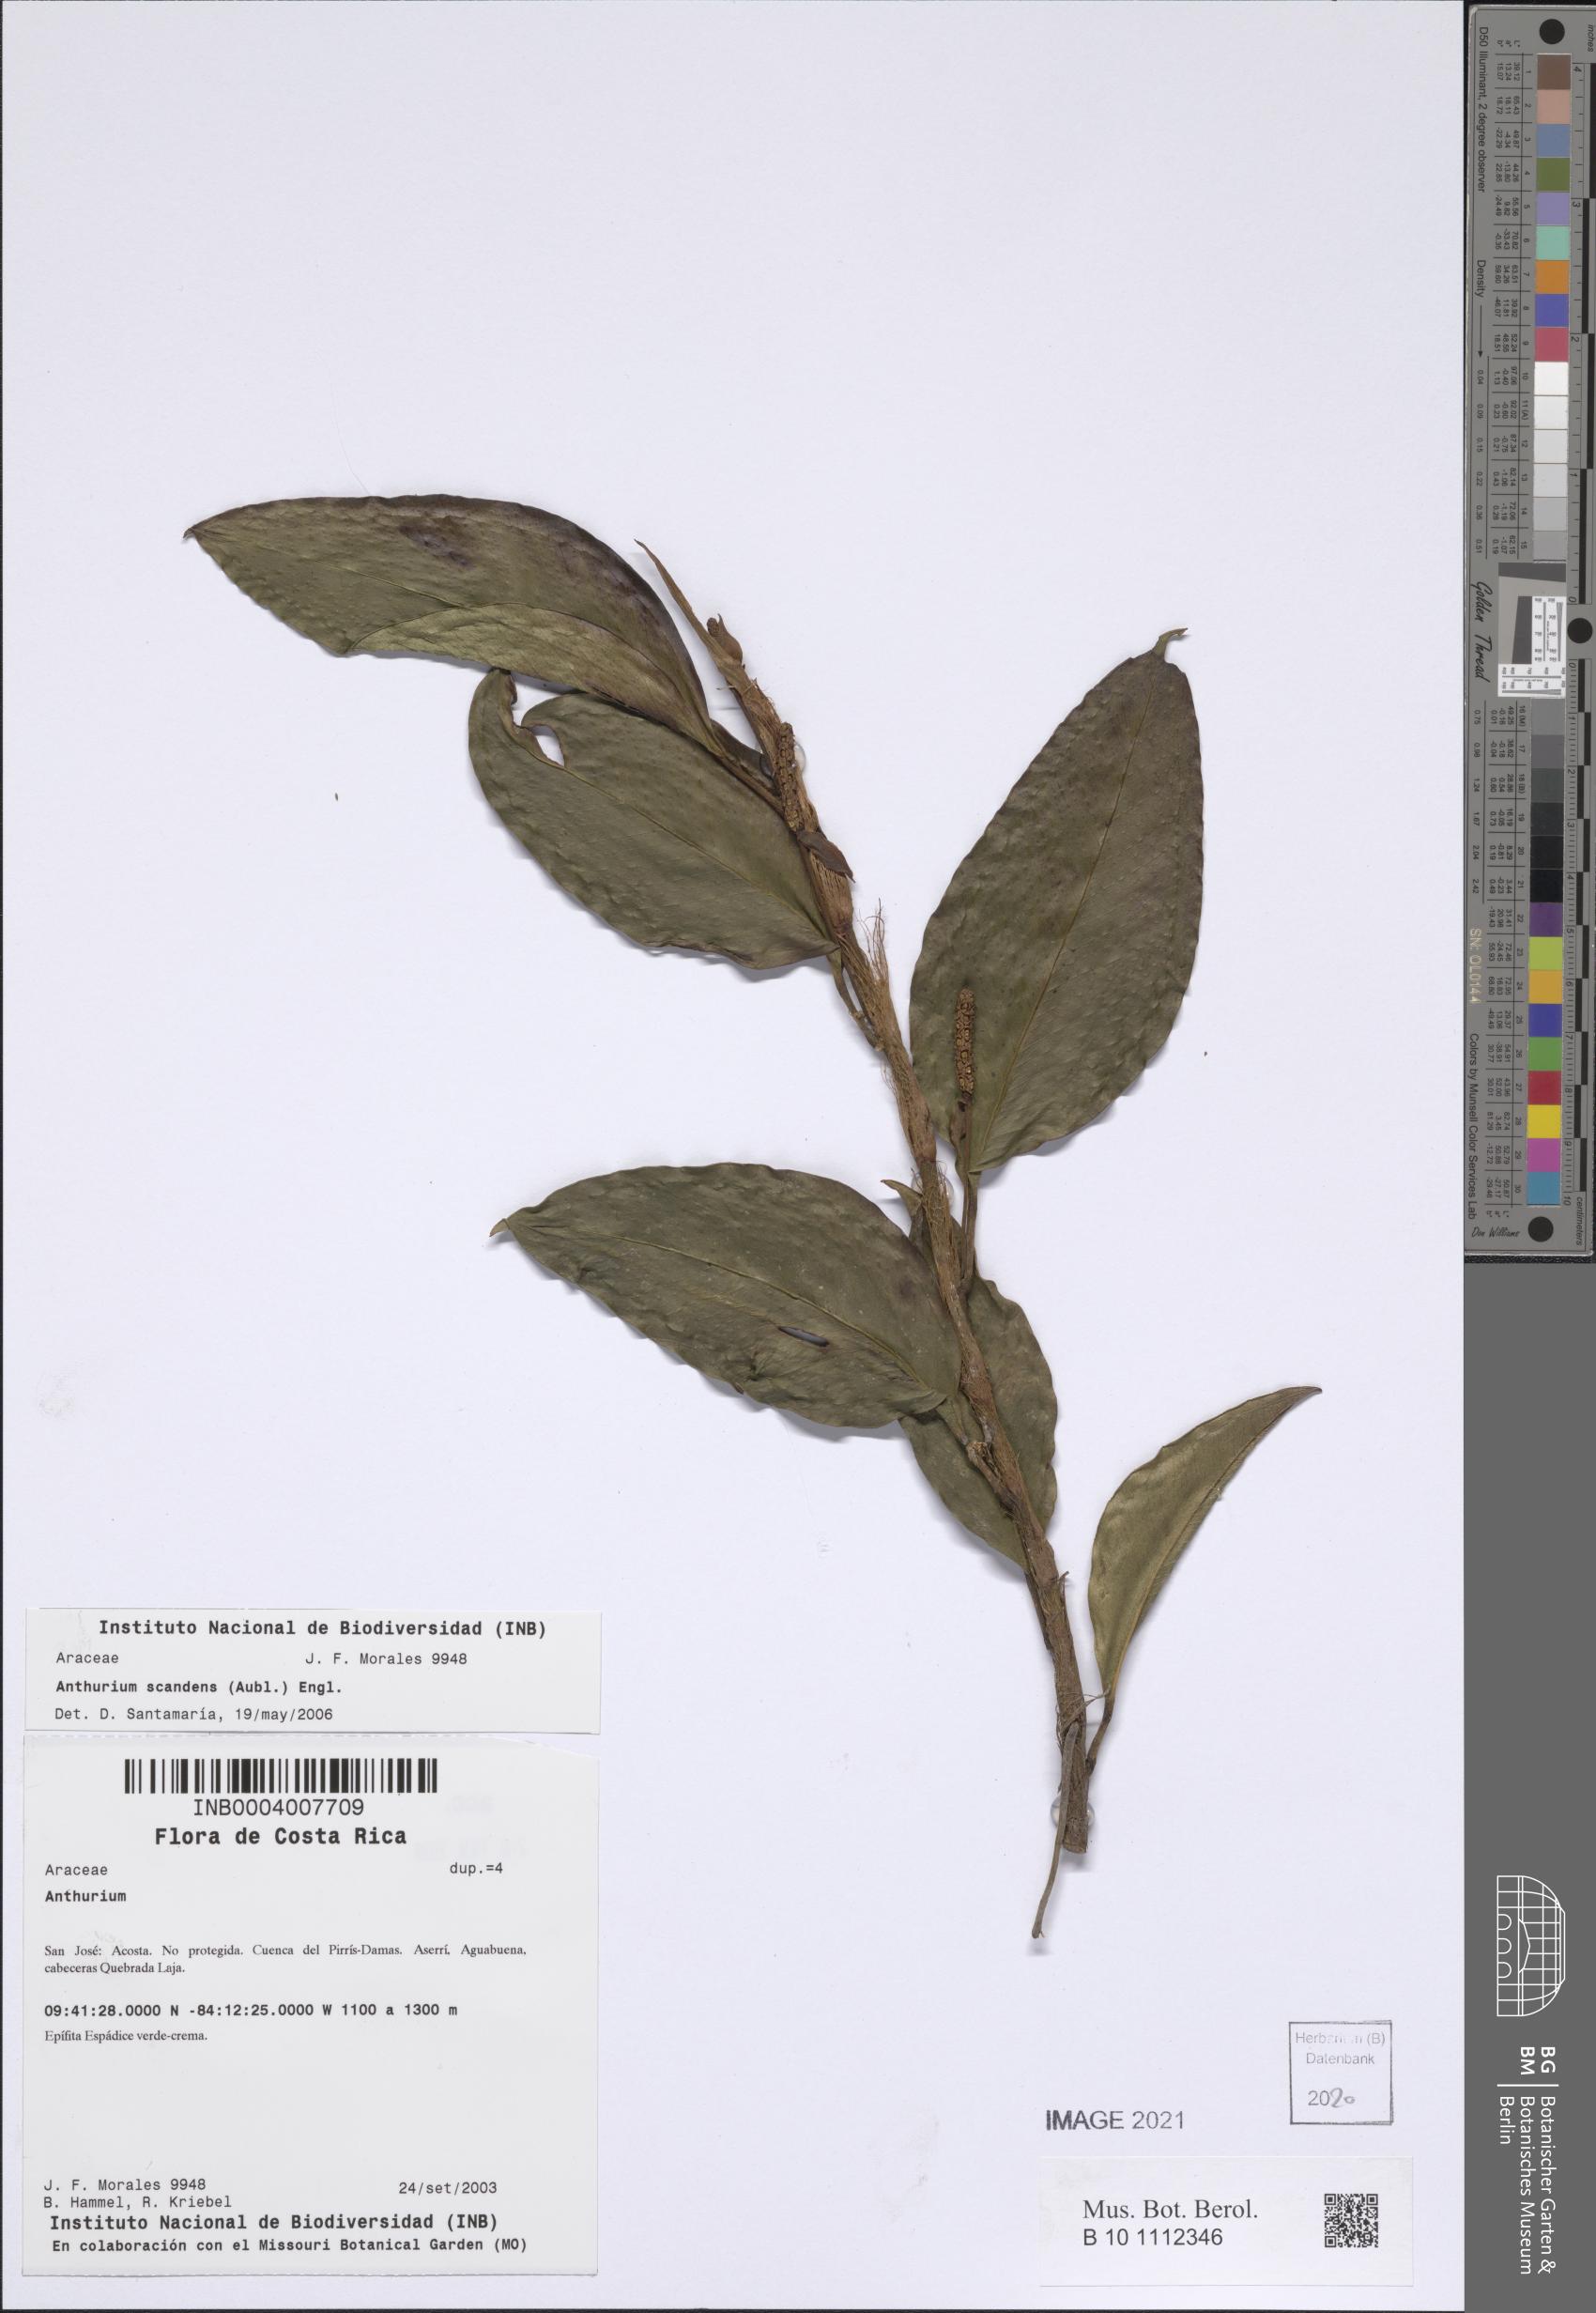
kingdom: Plantae
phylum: Tracheophyta
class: Liliopsida
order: Alismatales
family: Araceae
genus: Anthurium
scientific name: Anthurium scandens
